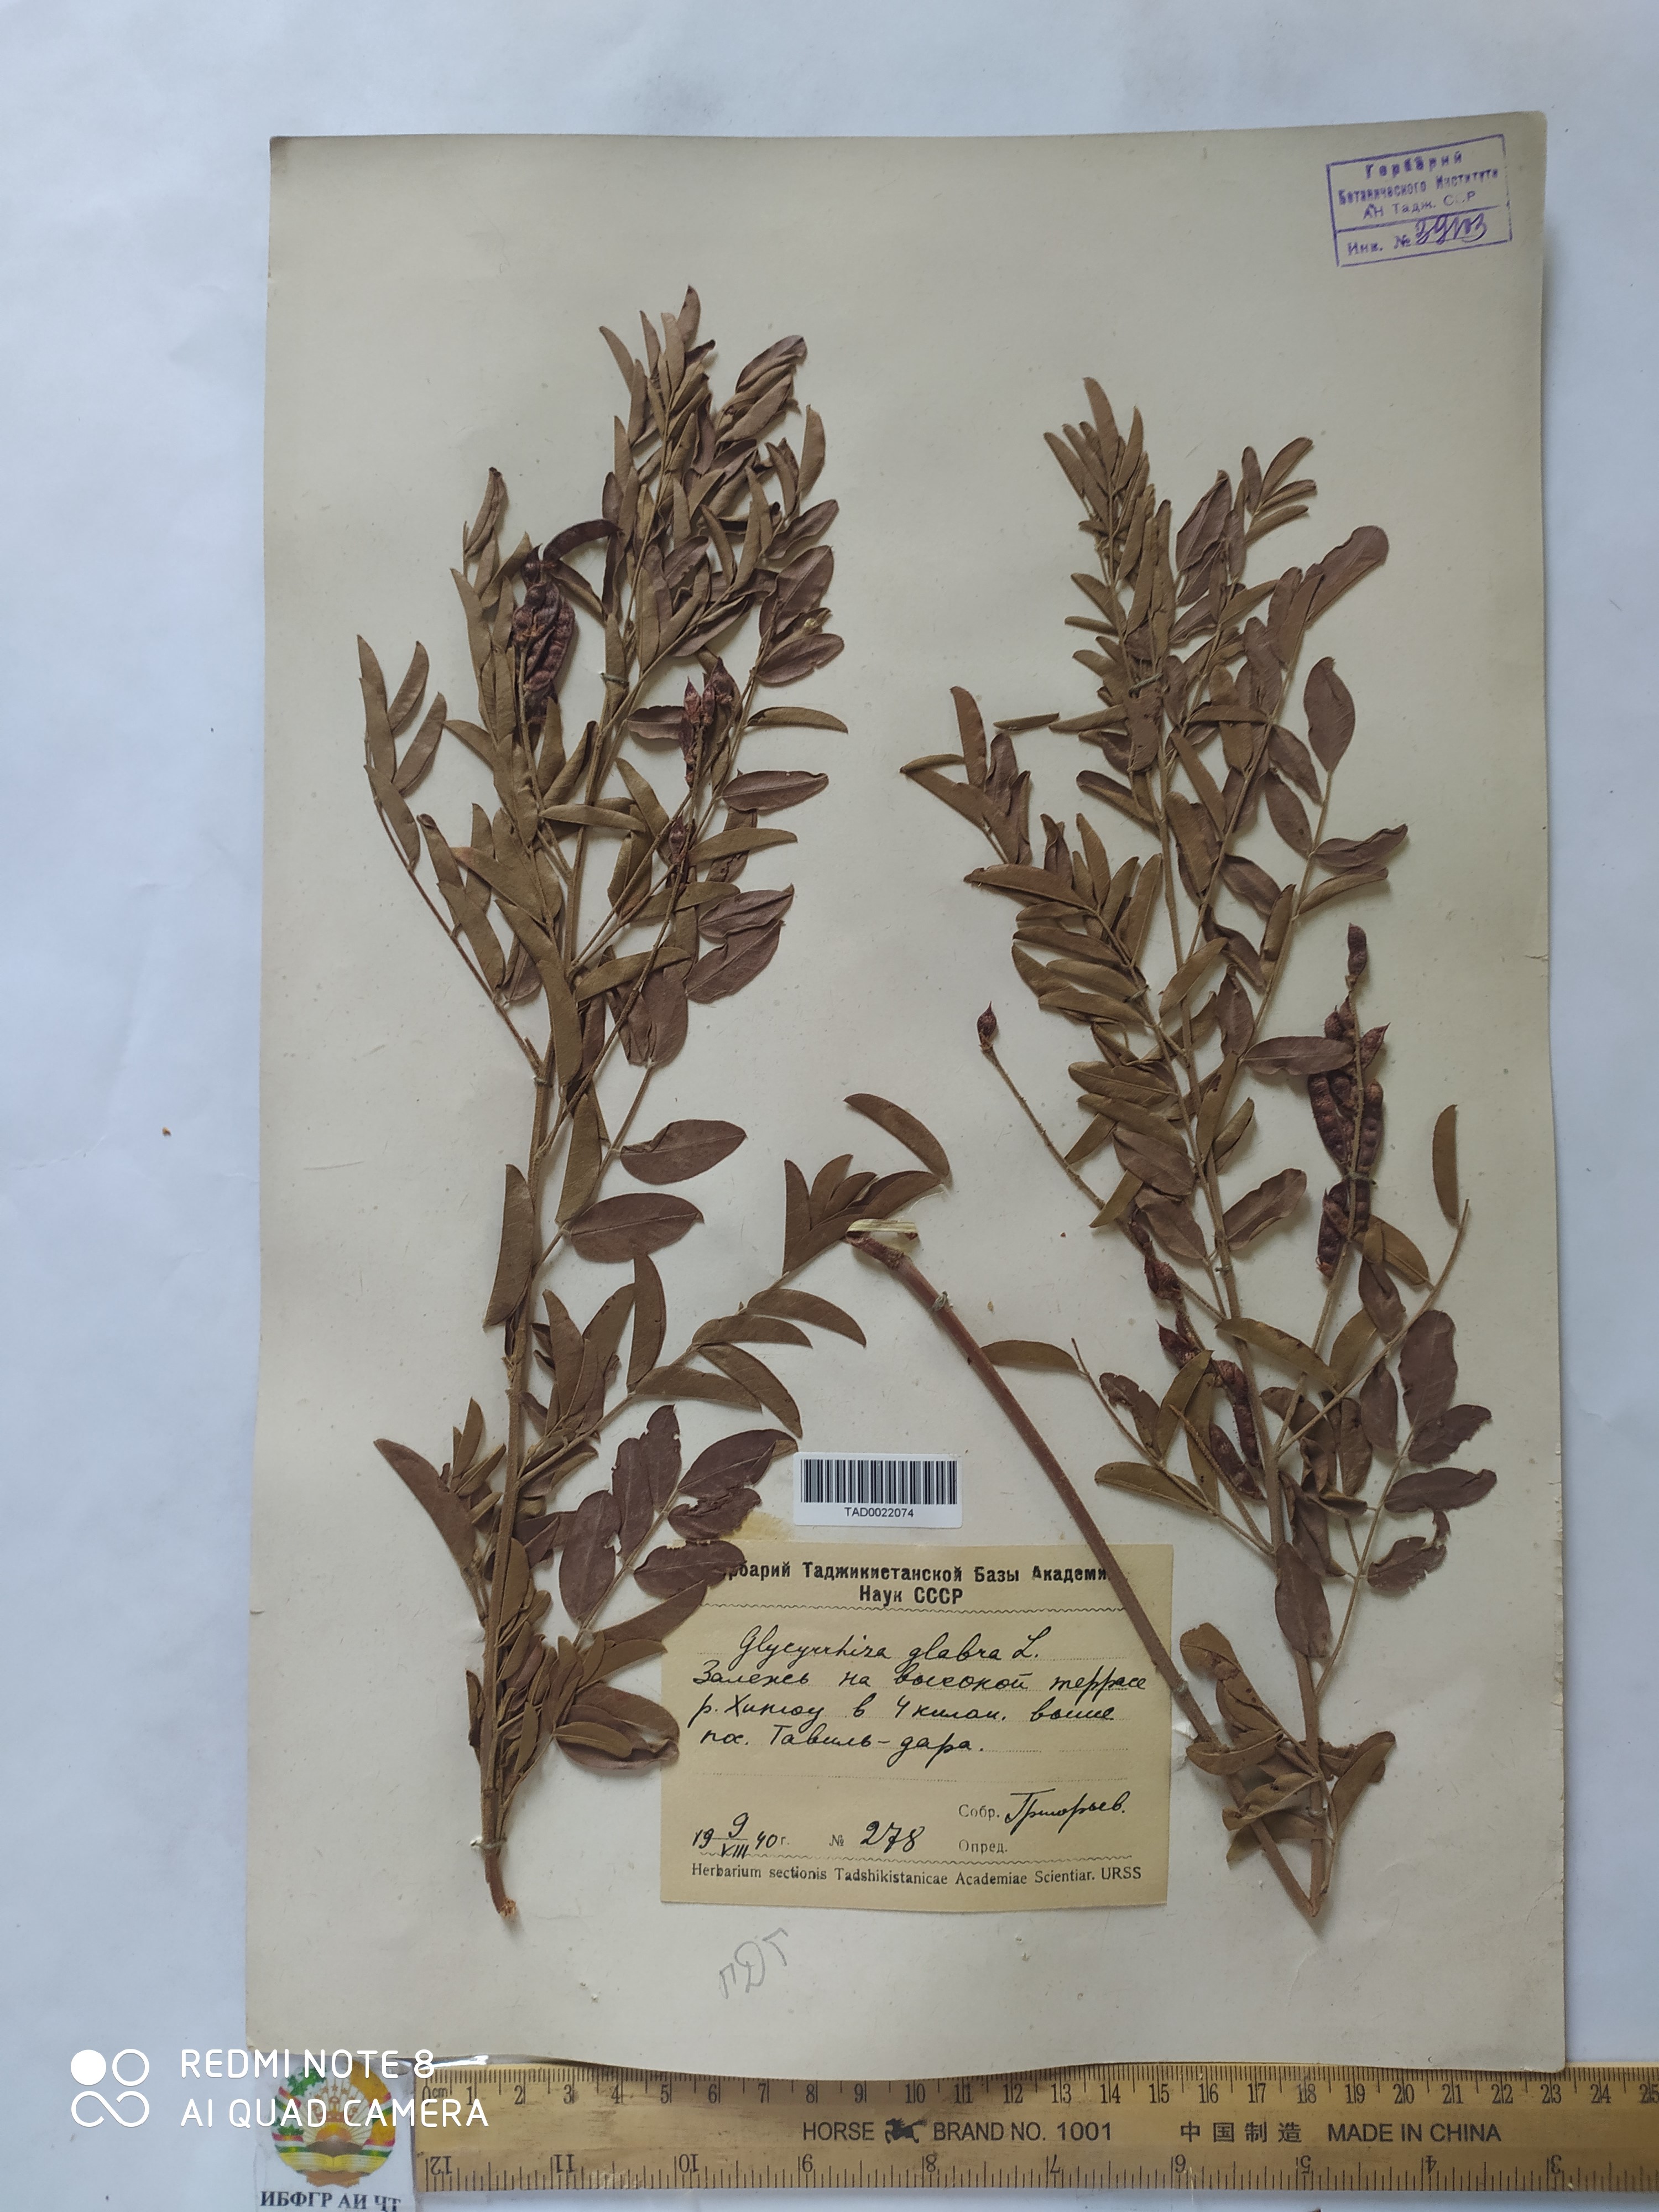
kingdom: Plantae
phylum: Tracheophyta
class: Magnoliopsida
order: Fabales
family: Fabaceae
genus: Glycyrrhiza
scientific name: Glycyrrhiza glabra
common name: Liquorice
